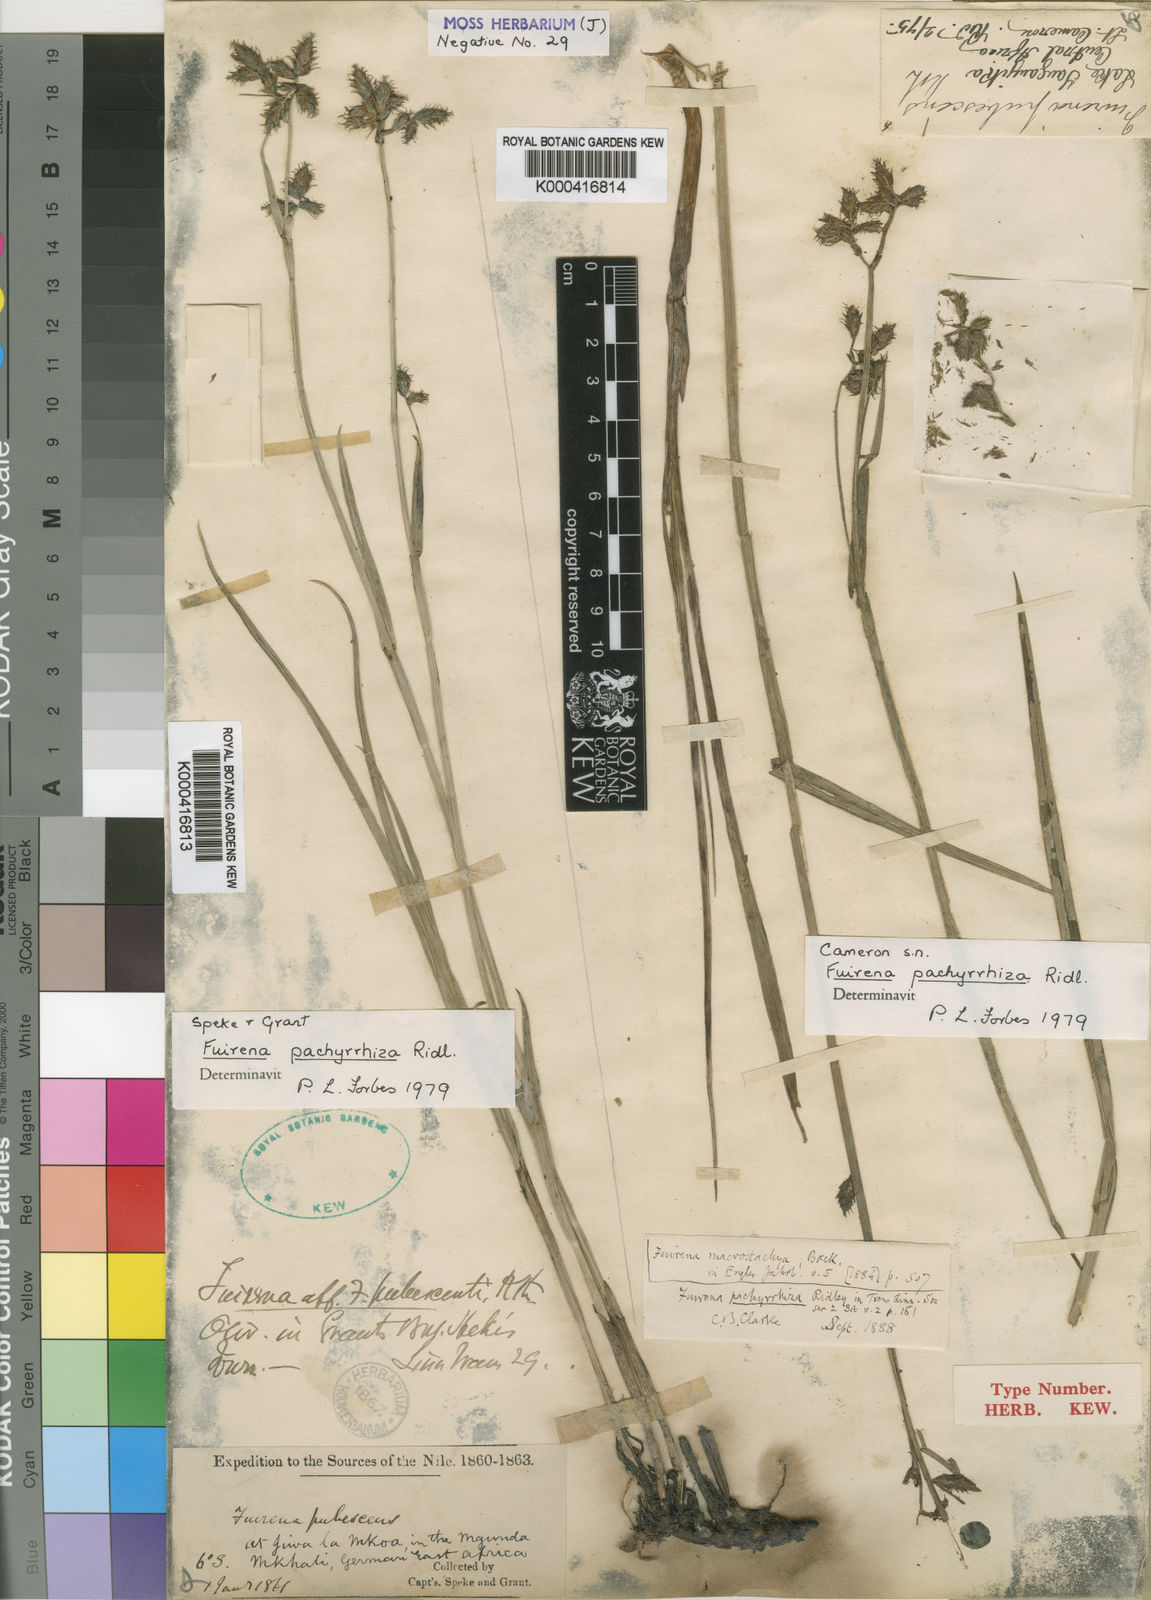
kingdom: Plantae
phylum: Tracheophyta
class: Liliopsida
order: Poales
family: Cyperaceae
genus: Fuirena
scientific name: Fuirena pachyrrhiza
